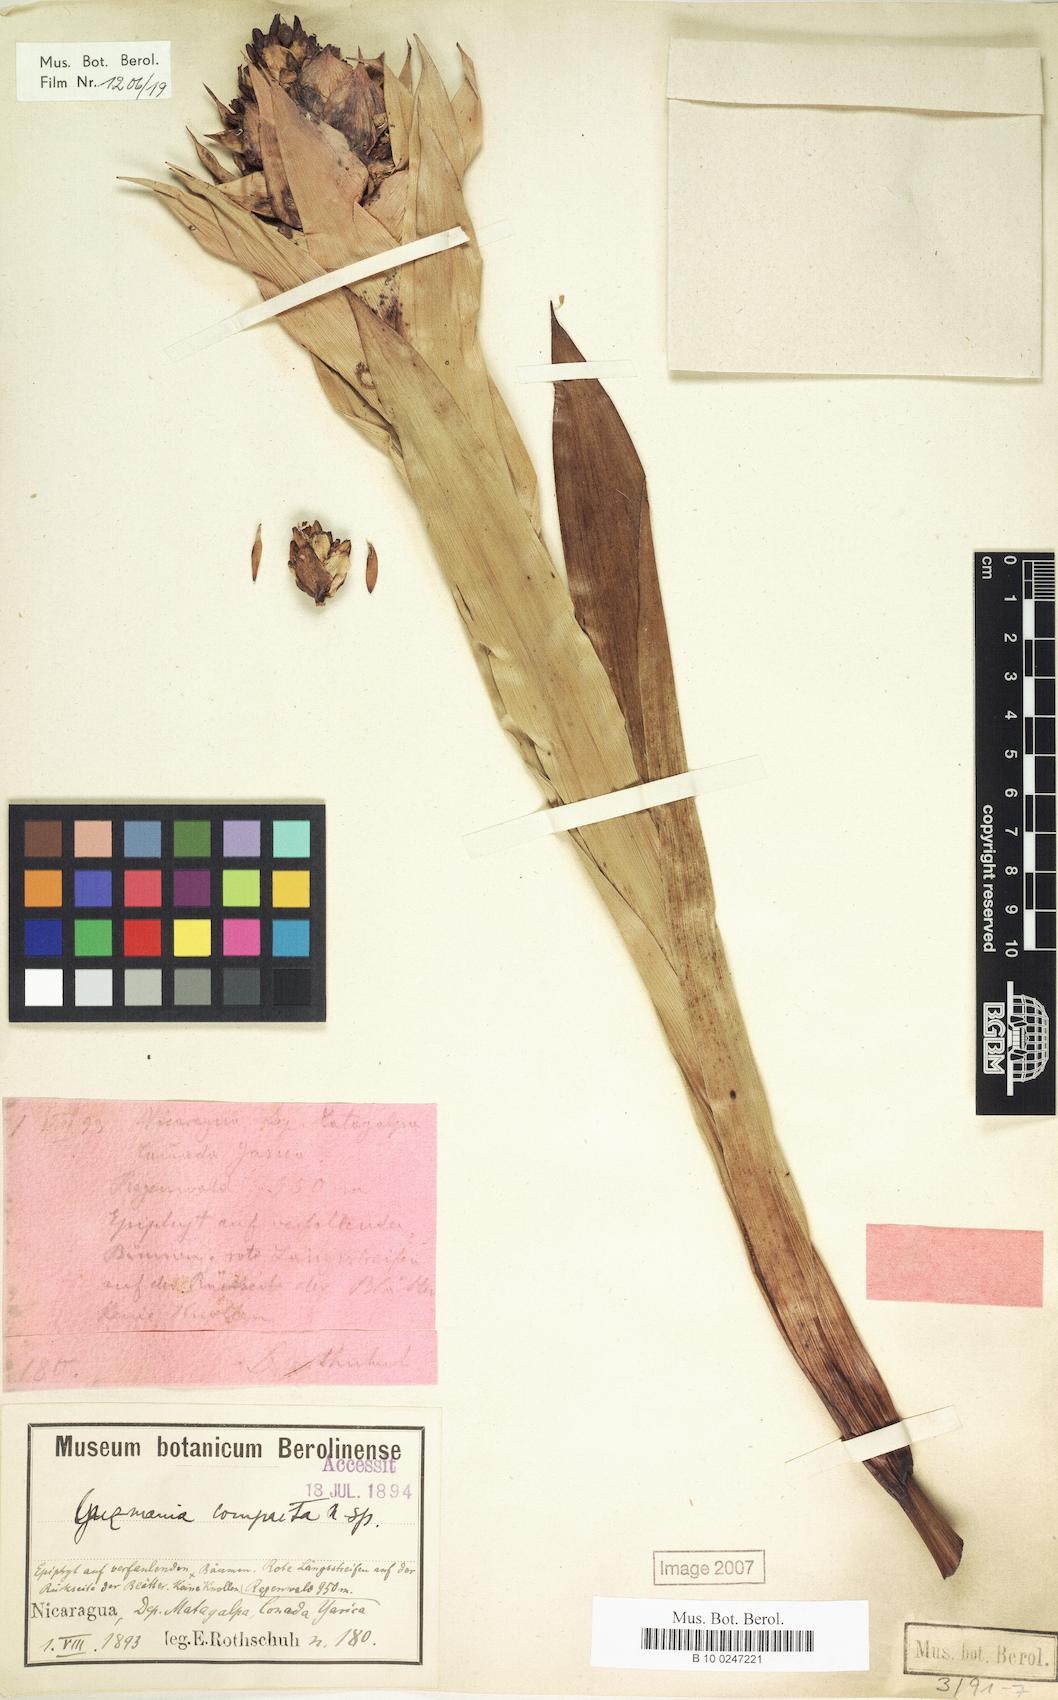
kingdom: Plantae
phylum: Tracheophyta
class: Liliopsida
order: Poales
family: Bromeliaceae
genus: Guzmania
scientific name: Guzmania compacta
